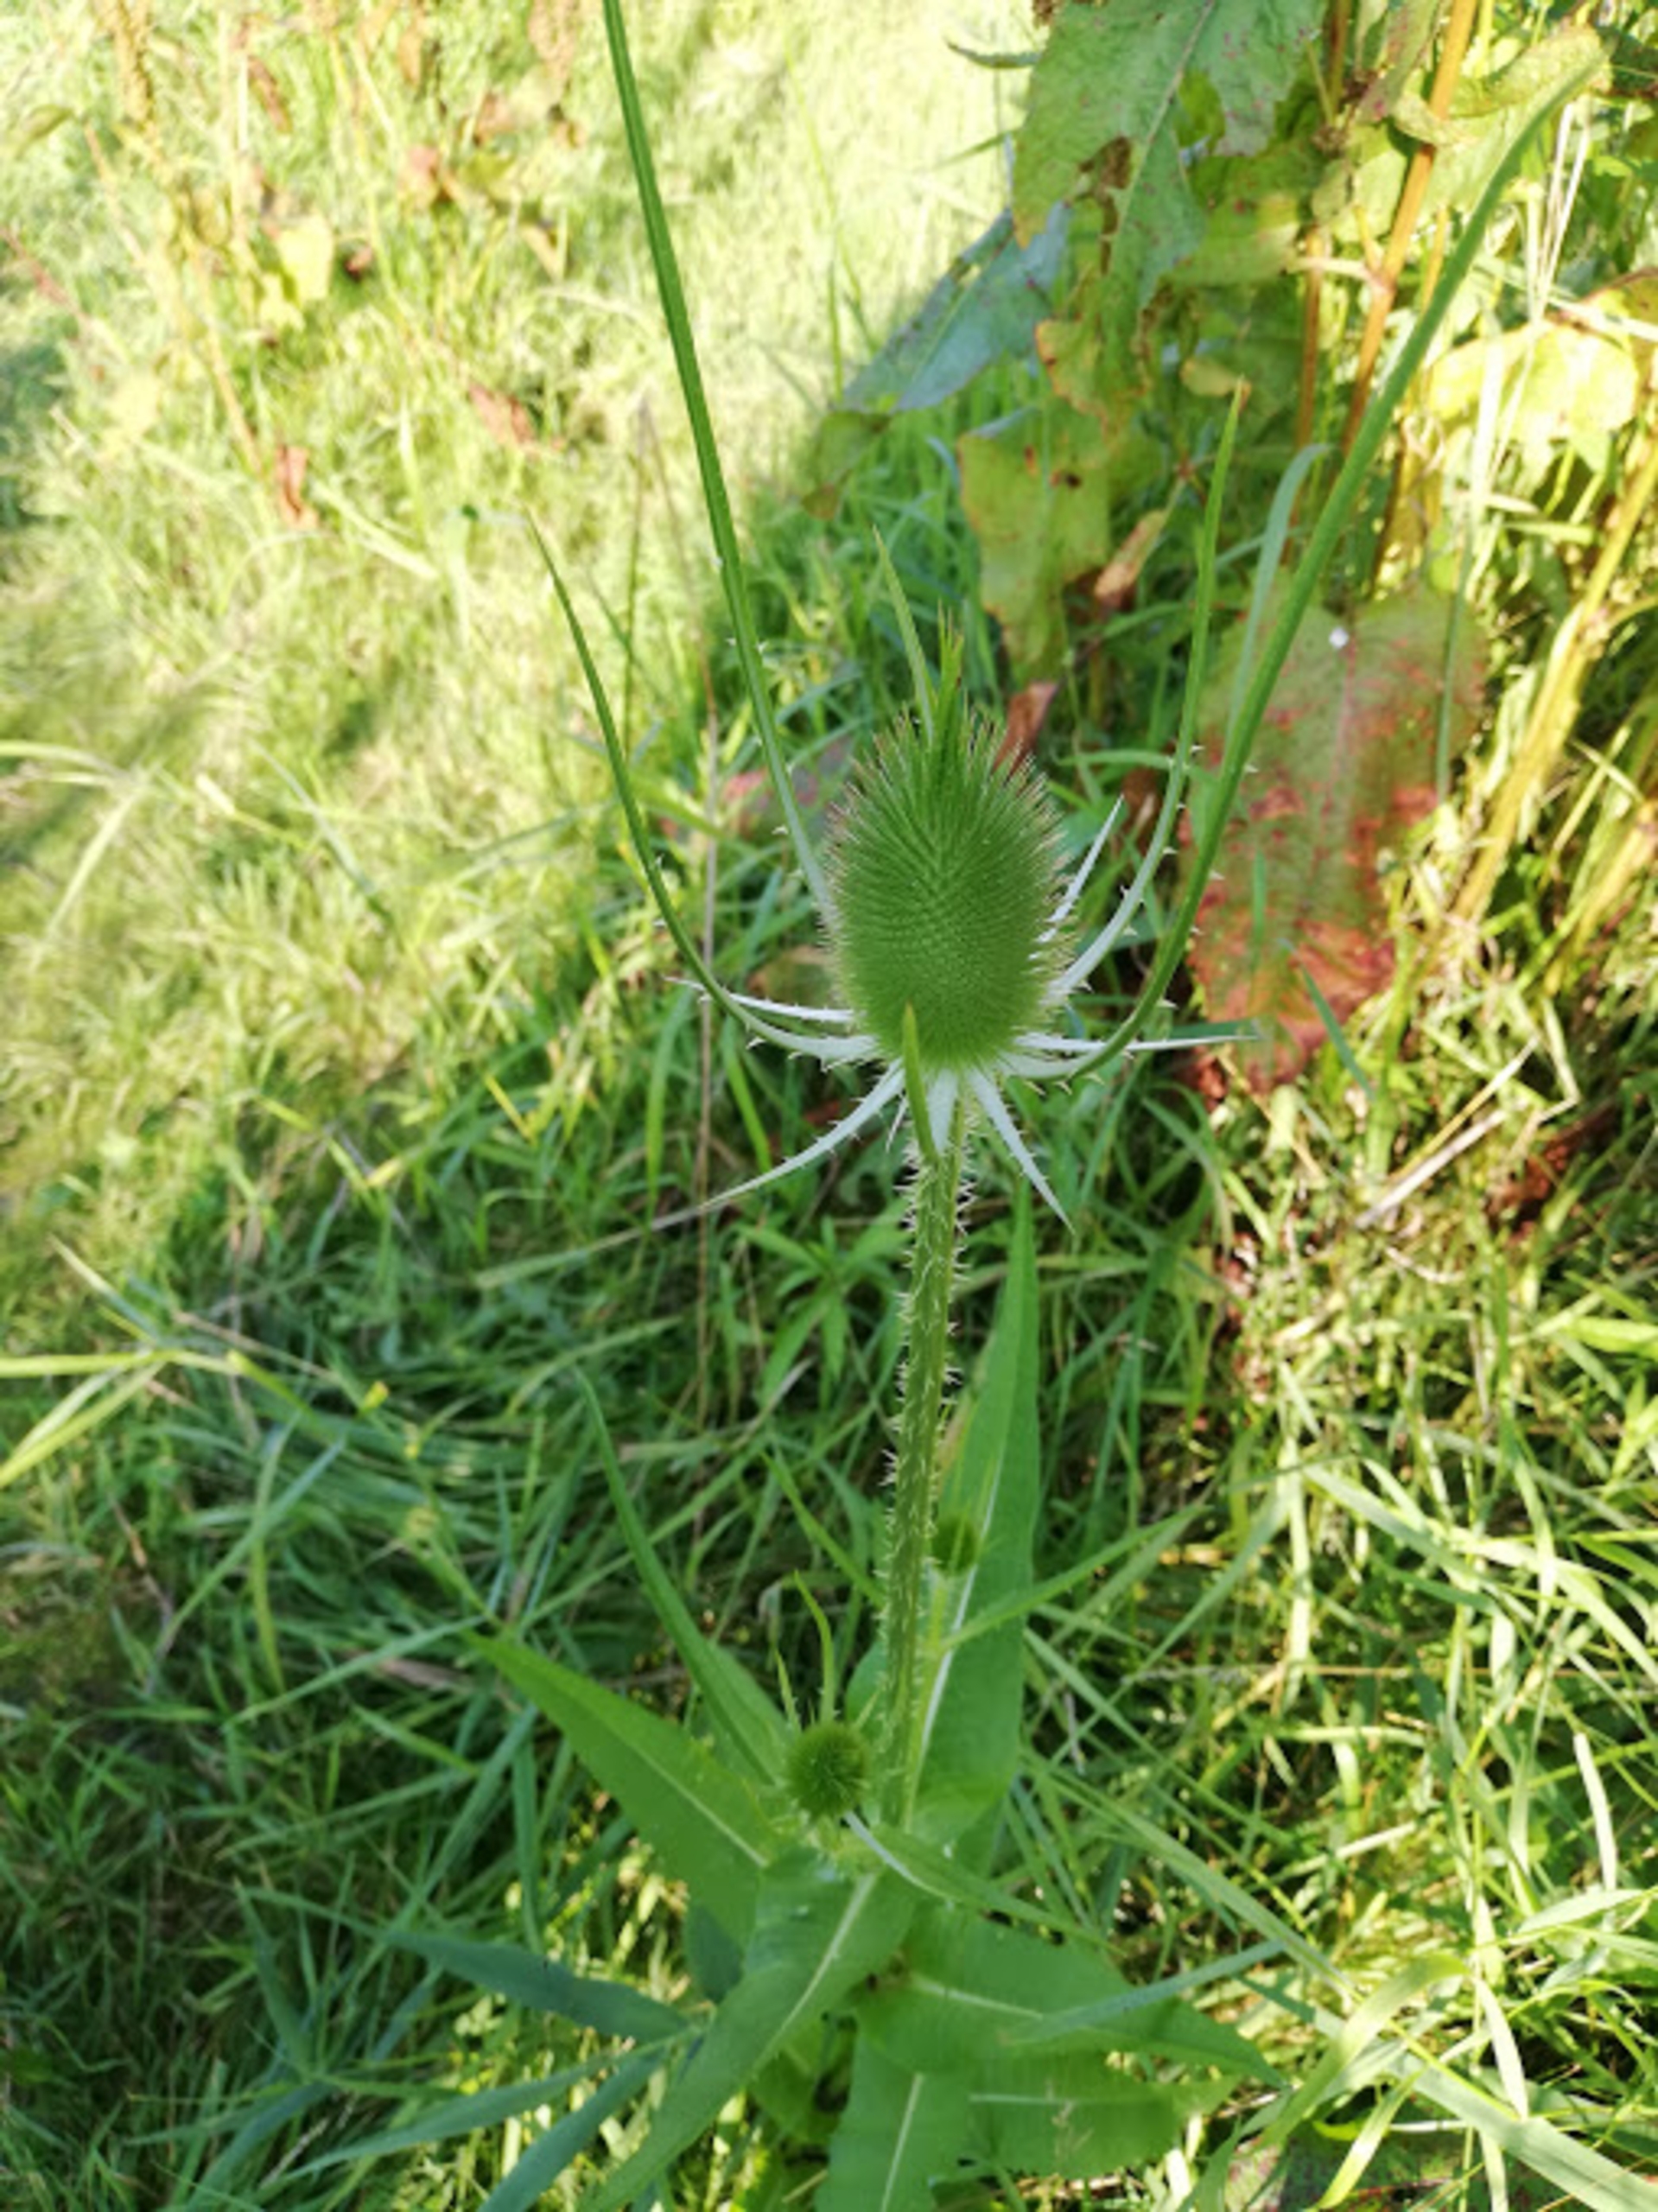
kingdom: Plantae
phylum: Tracheophyta
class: Magnoliopsida
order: Dipsacales
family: Caprifoliaceae
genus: Dipsacus
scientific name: Dipsacus fullonum
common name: Gærde-kartebolle
